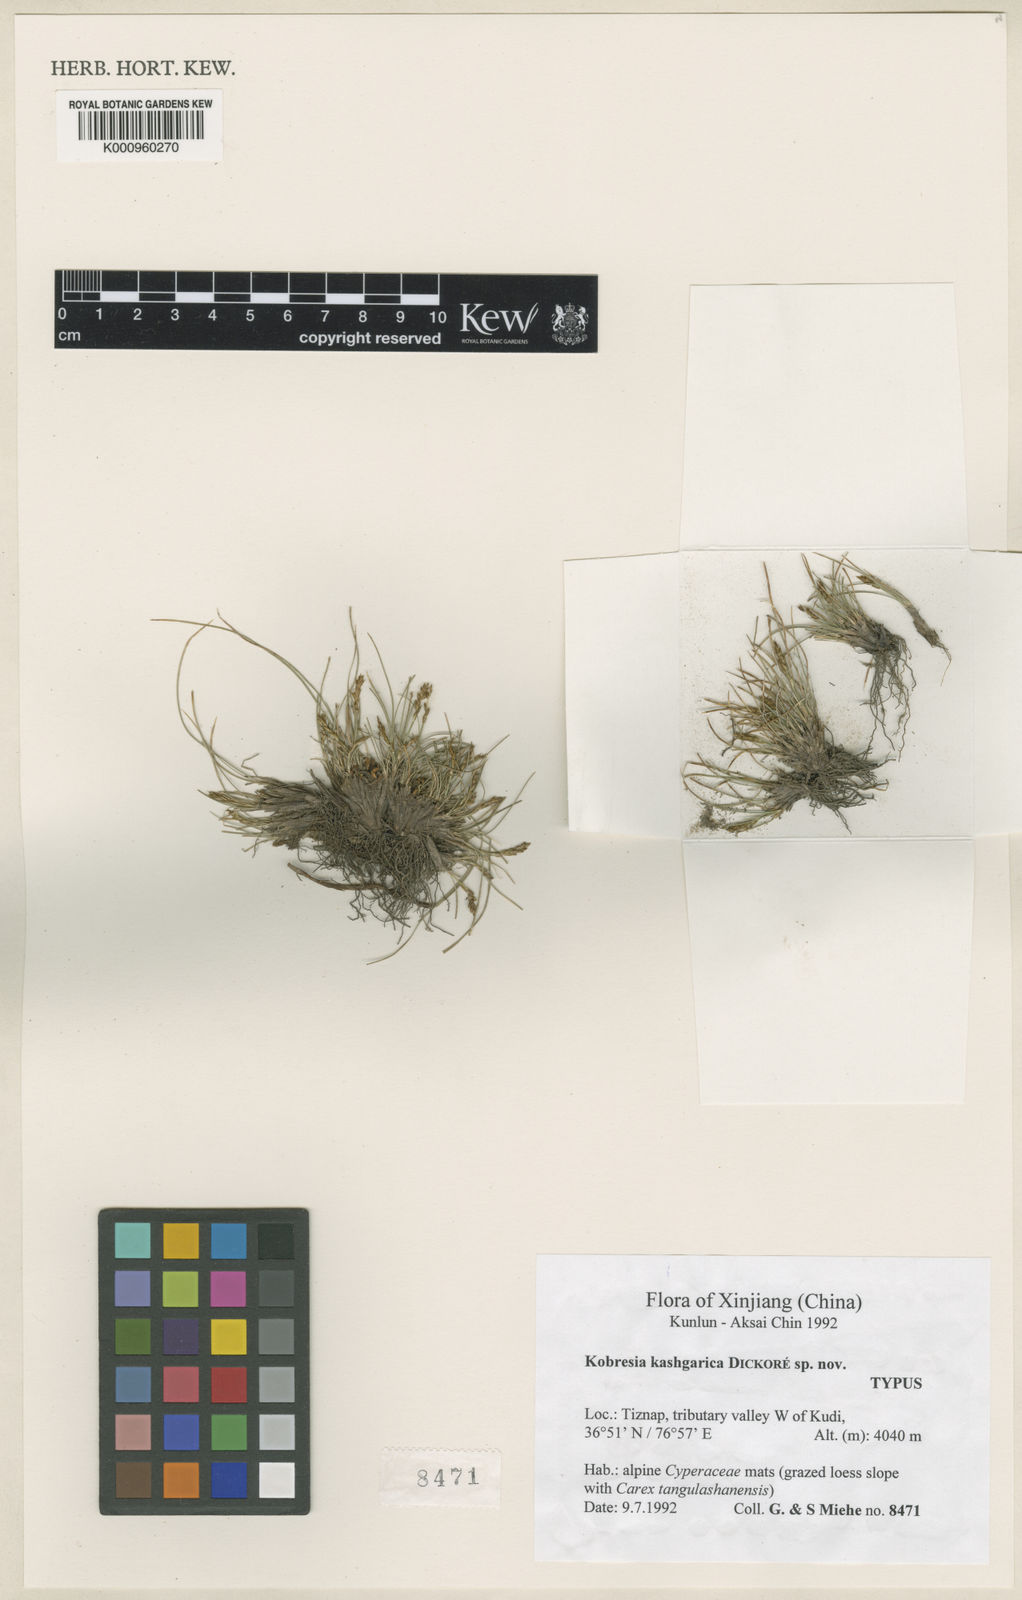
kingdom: Plantae
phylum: Tracheophyta
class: Liliopsida
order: Poales
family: Cyperaceae
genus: Carex
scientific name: Carex
